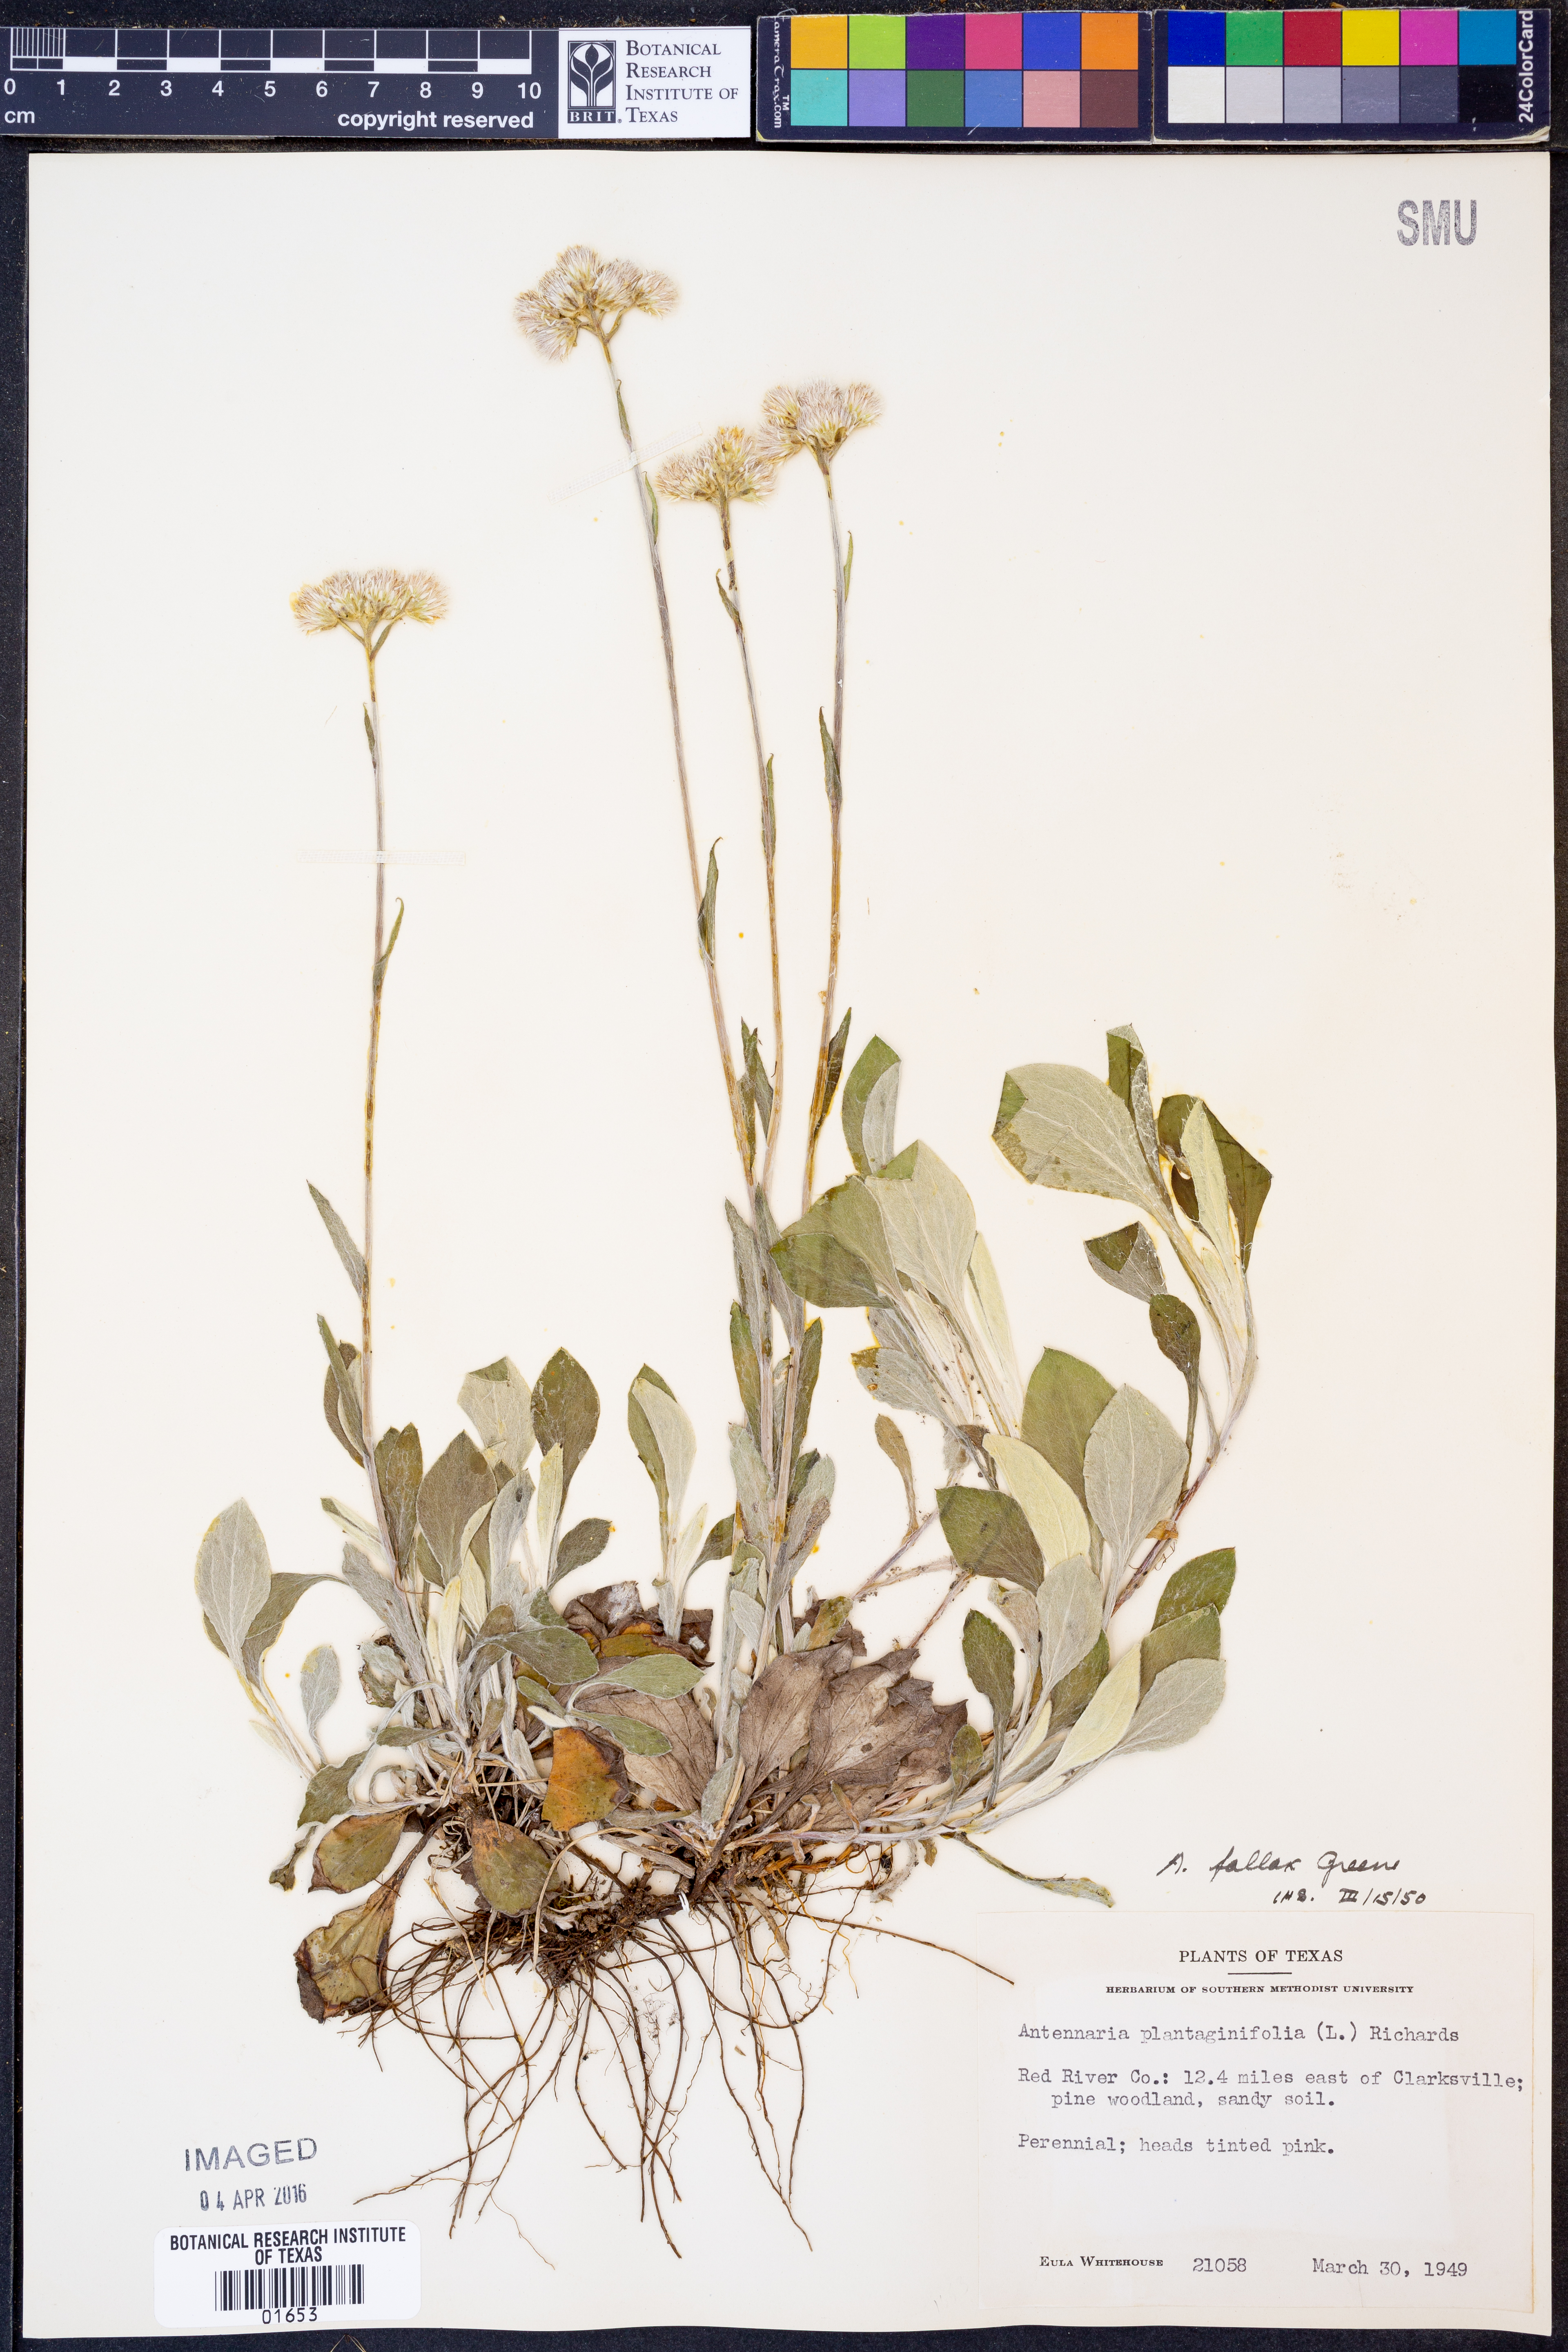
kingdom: Plantae
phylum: Tracheophyta
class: Magnoliopsida
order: Asterales
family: Asteraceae
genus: Antennaria
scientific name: Antennaria parlinii
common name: Parlin's pussytoes
